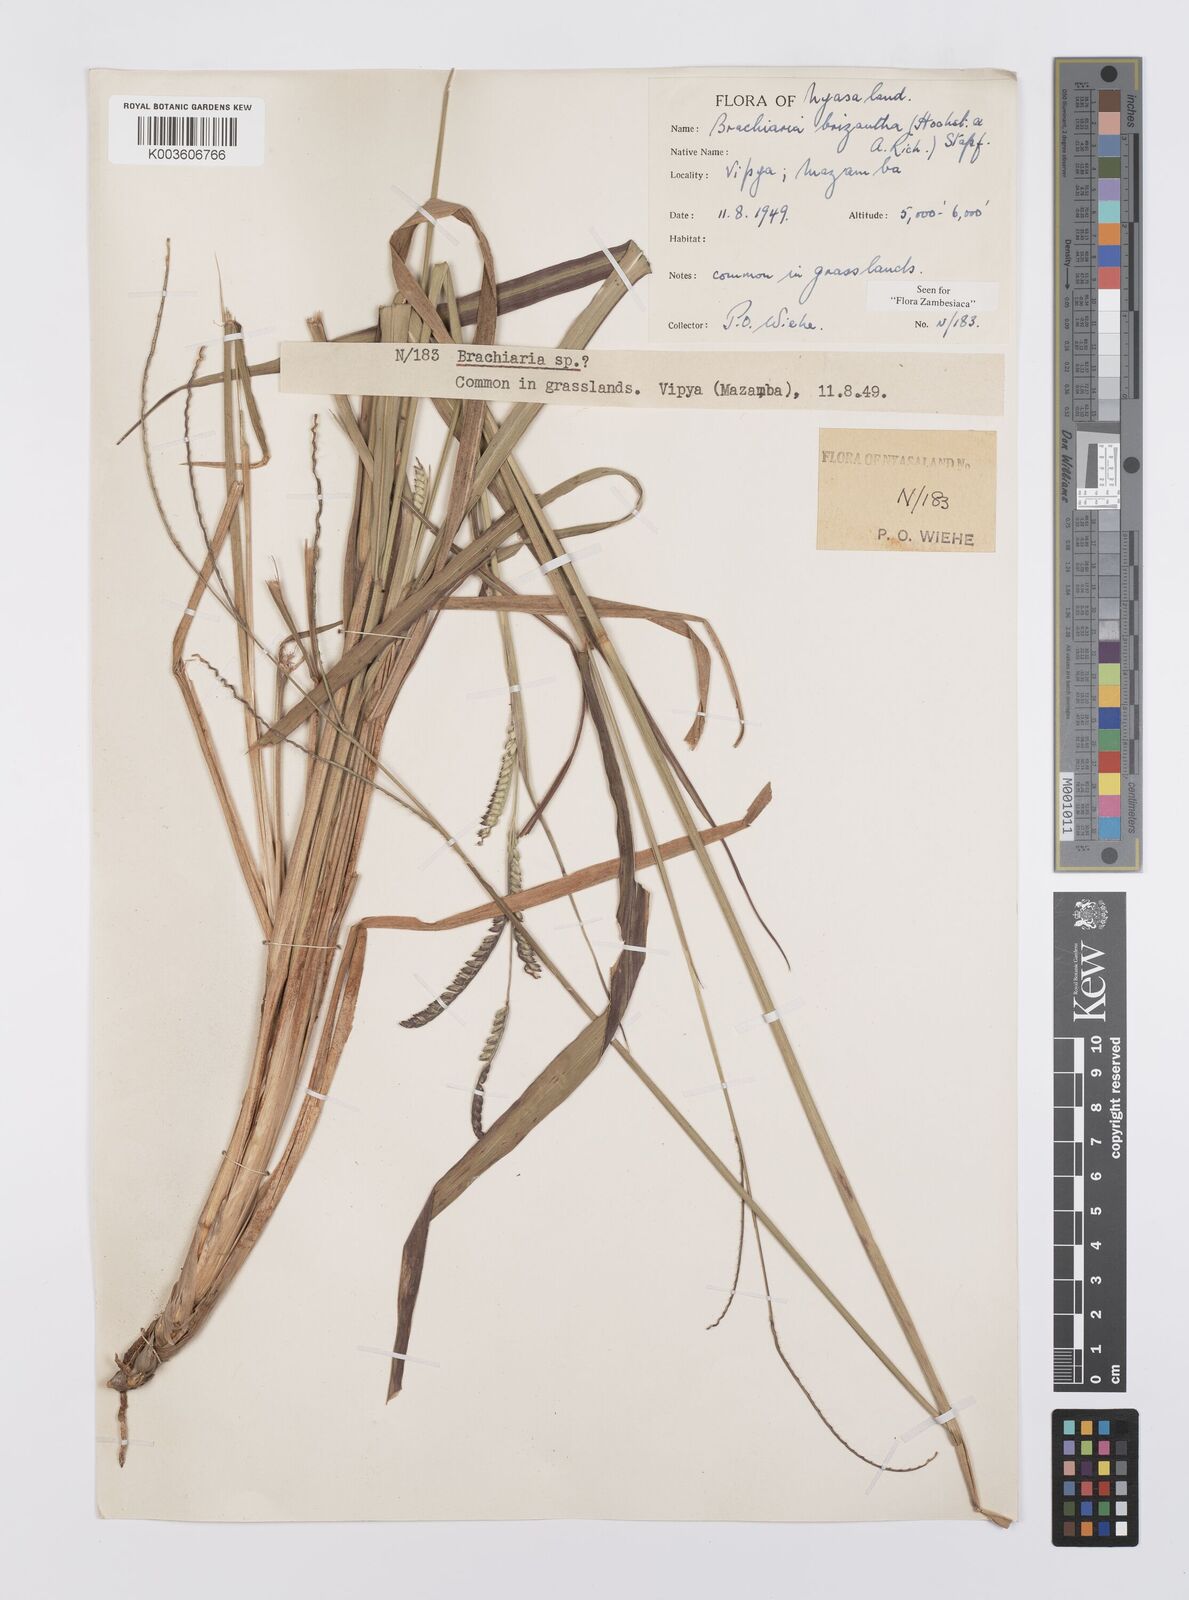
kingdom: Plantae
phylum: Tracheophyta
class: Liliopsida
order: Poales
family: Poaceae
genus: Urochloa
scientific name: Urochloa brizantha
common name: Palisade signalgrass
